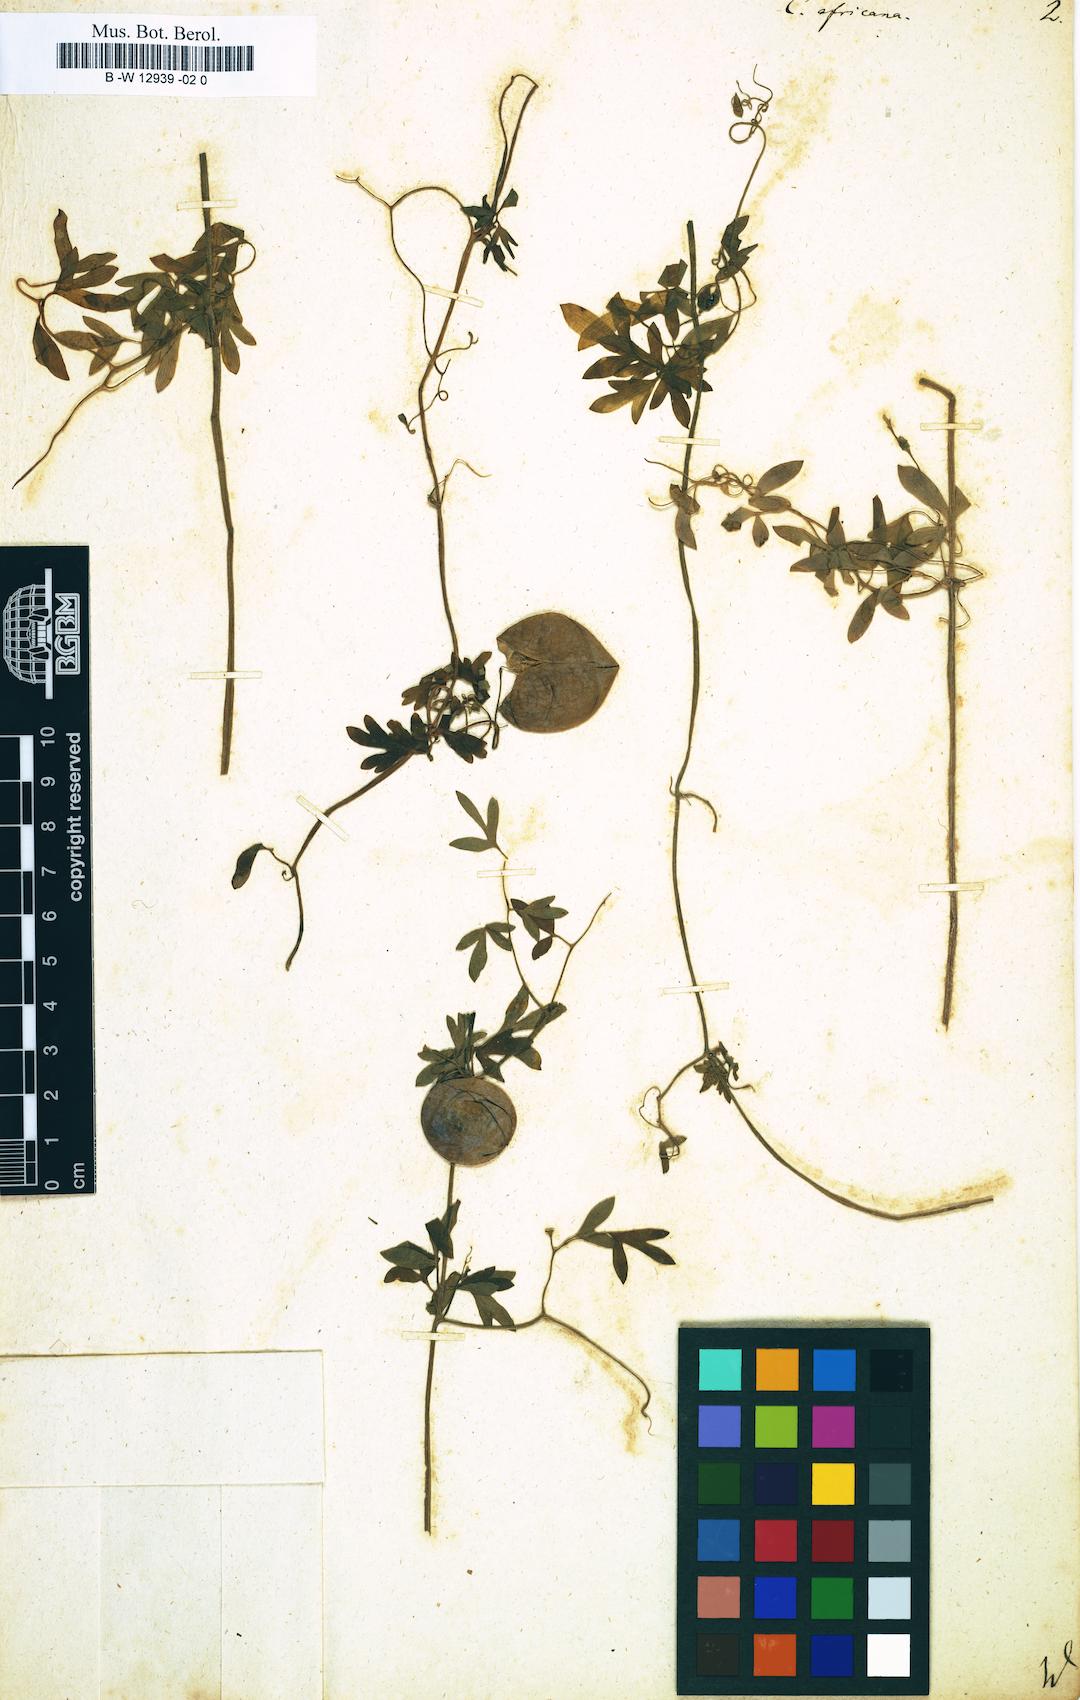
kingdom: Plantae
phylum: Tracheophyta
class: Magnoliopsida
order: Ranunculales
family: Papaveraceae
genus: Cysticapnos
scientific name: Cysticapnos vesicaria
